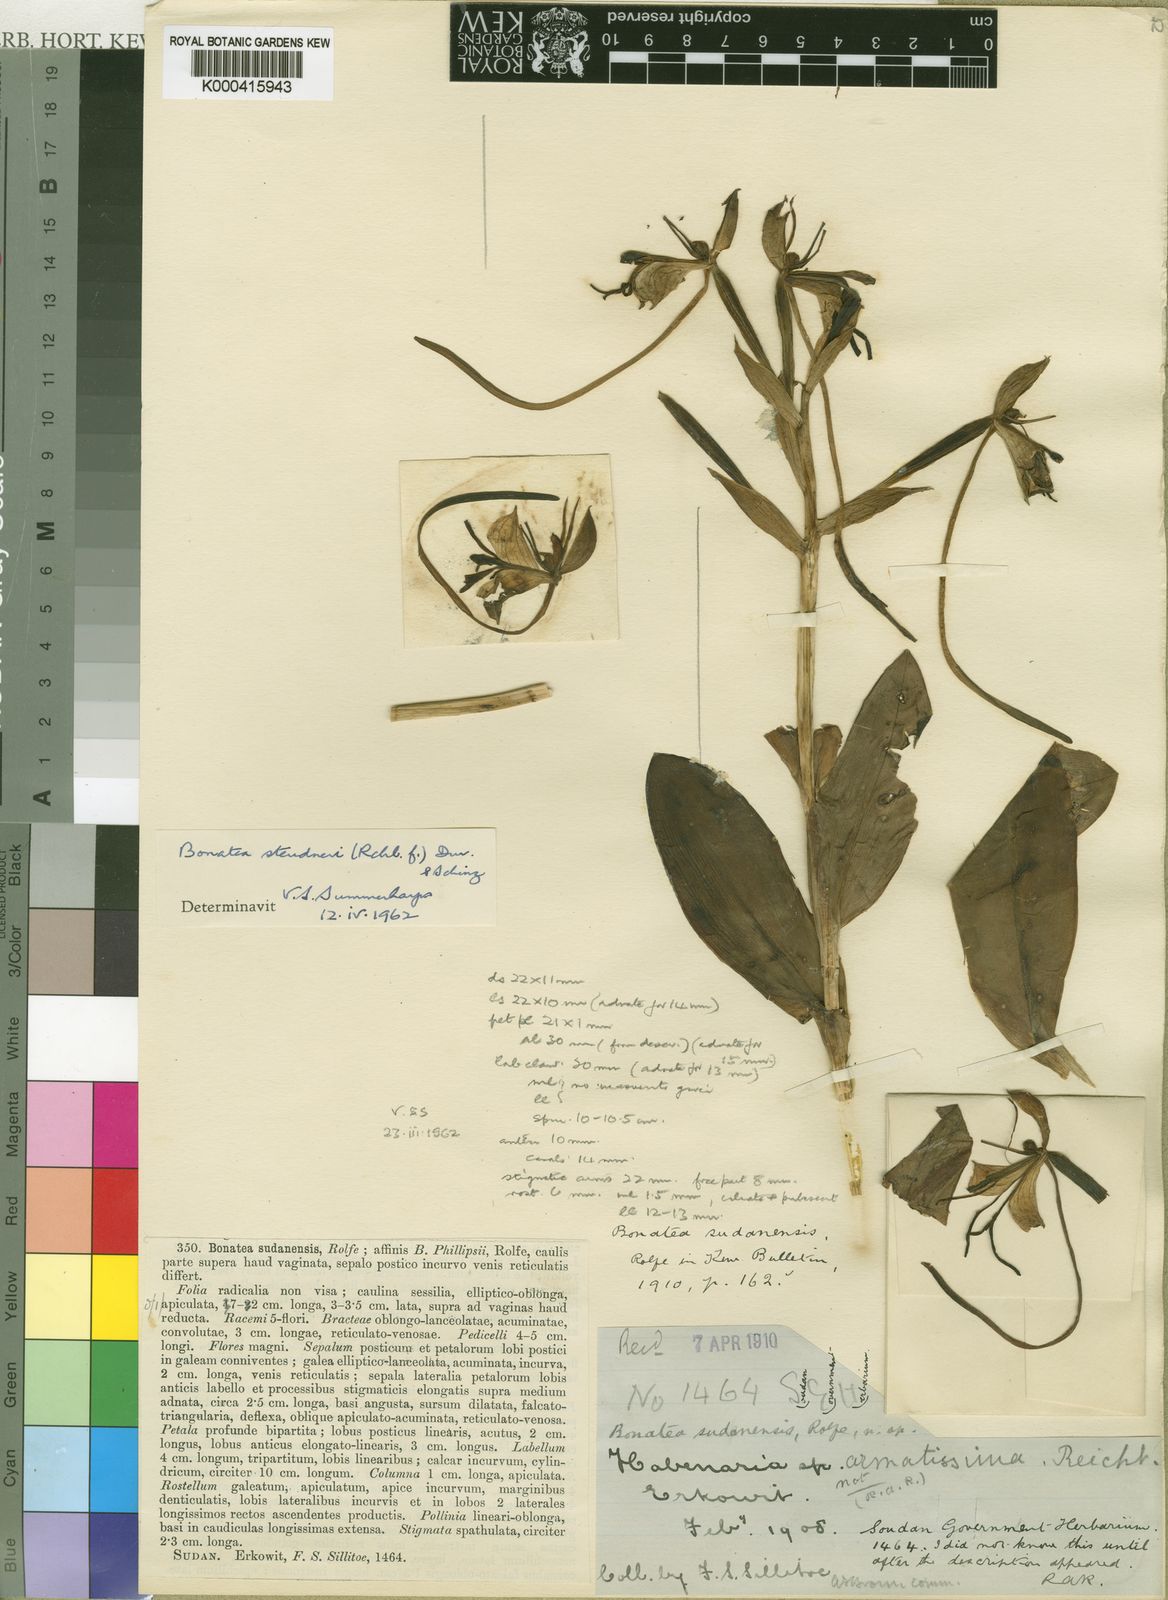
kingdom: Plantae
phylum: Tracheophyta
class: Liliopsida
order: Asparagales
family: Orchidaceae
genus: Bonatea
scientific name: Bonatea steudneri
